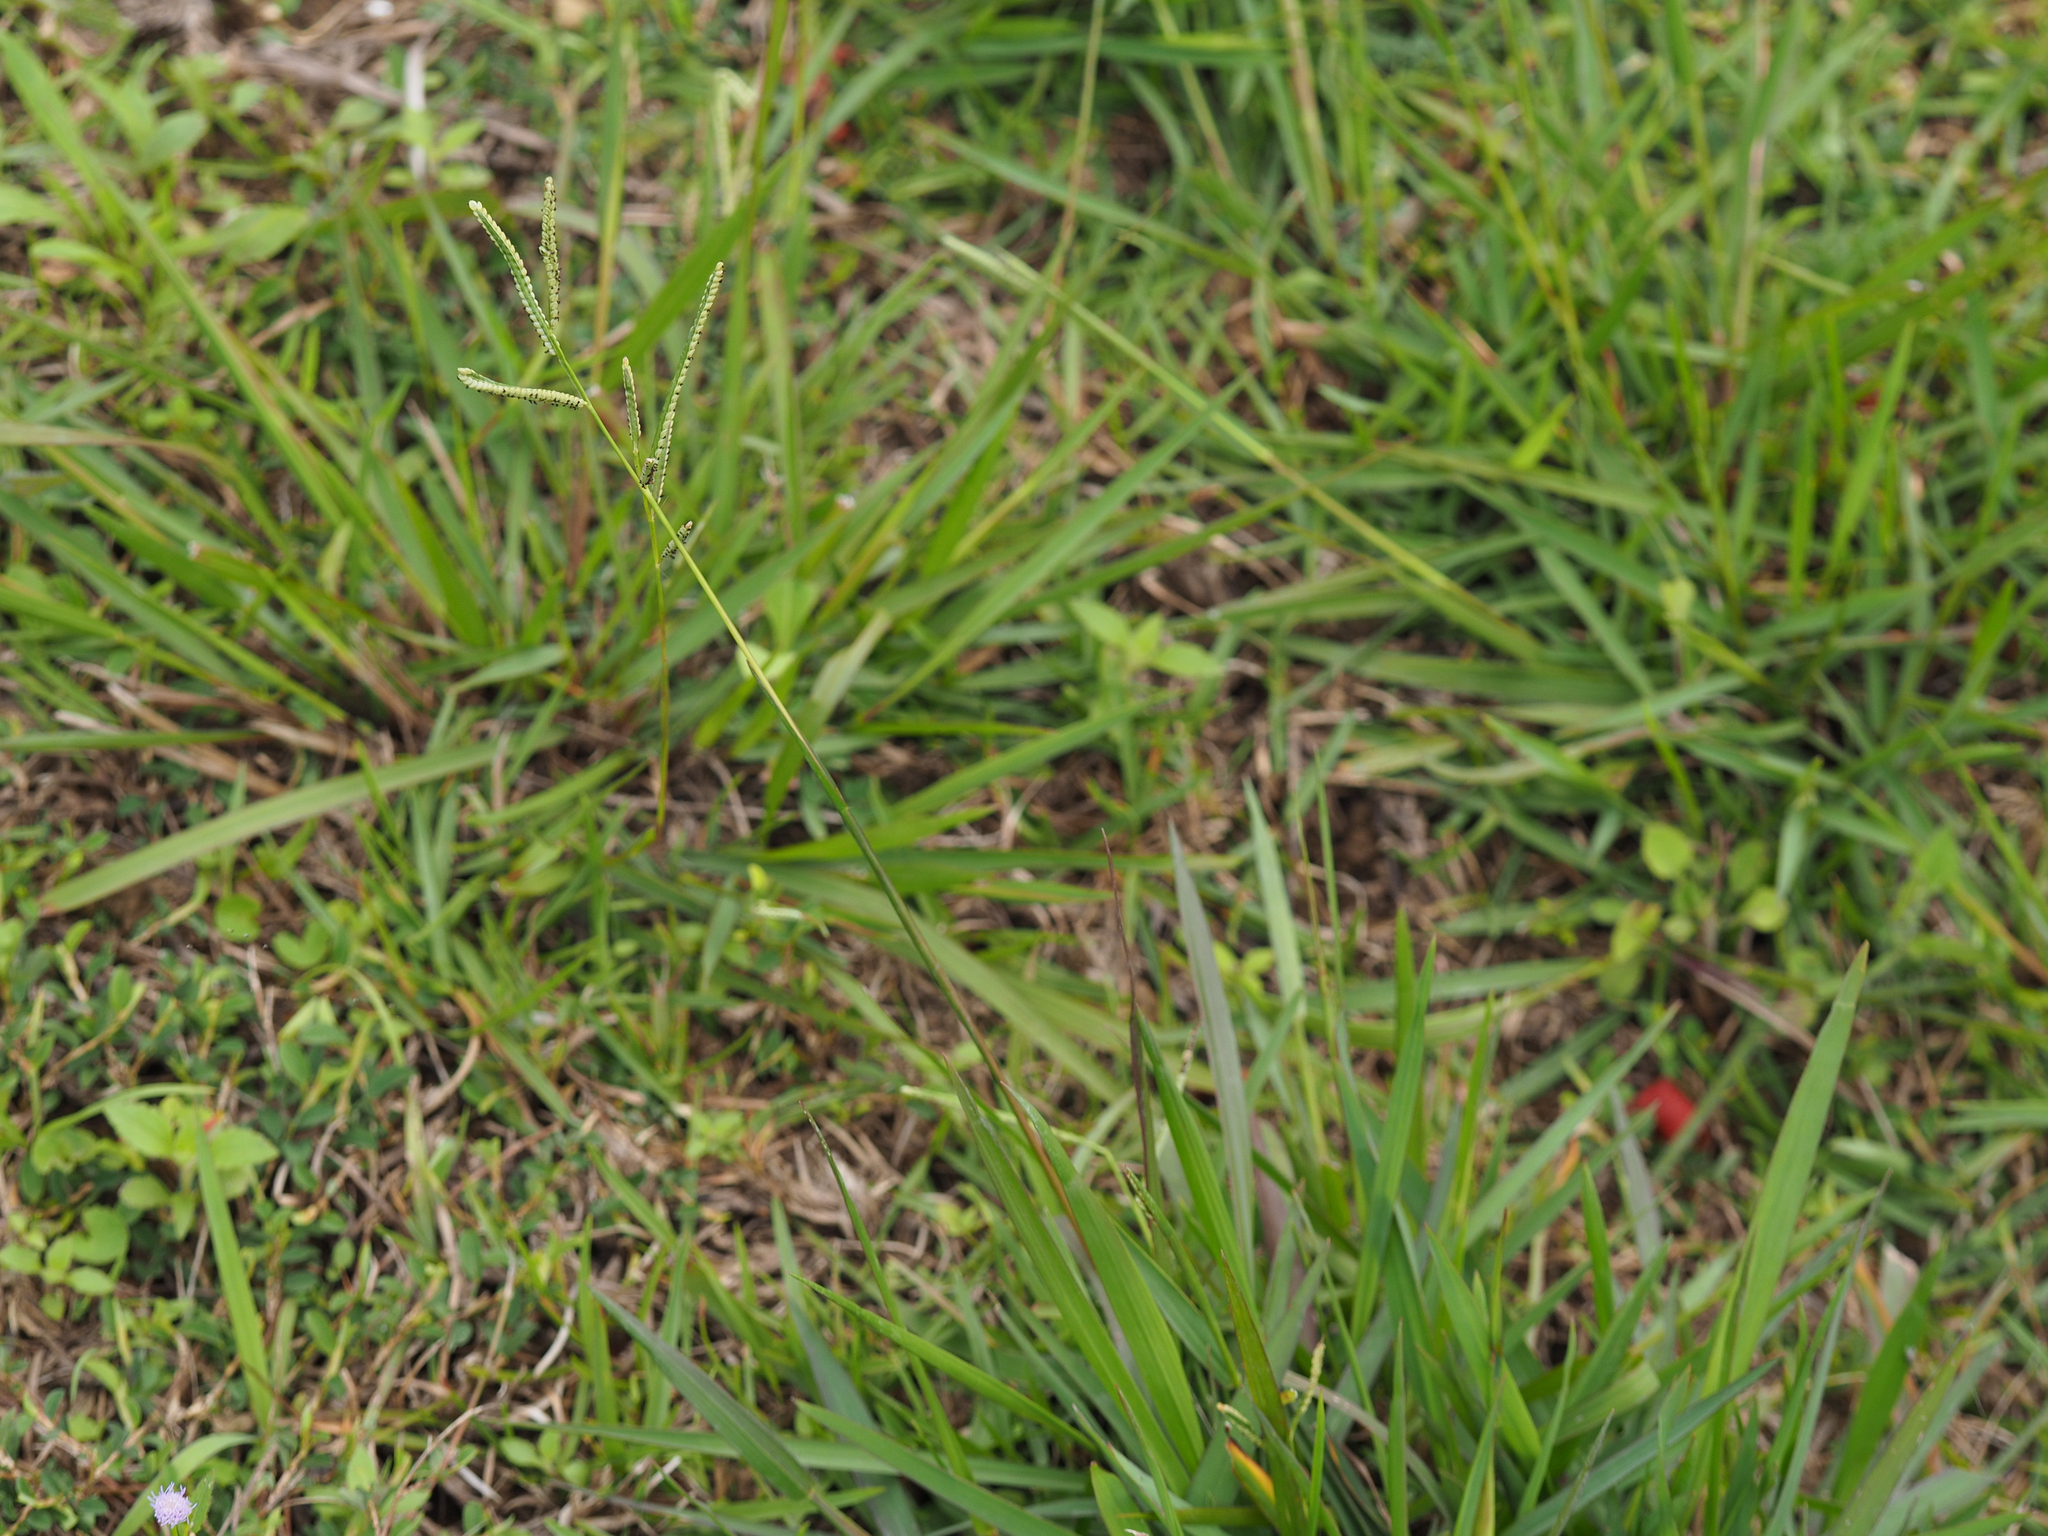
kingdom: Plantae
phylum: Tracheophyta
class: Liliopsida
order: Poales
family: Poaceae
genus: Paspalum
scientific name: Paspalum orbiculare
